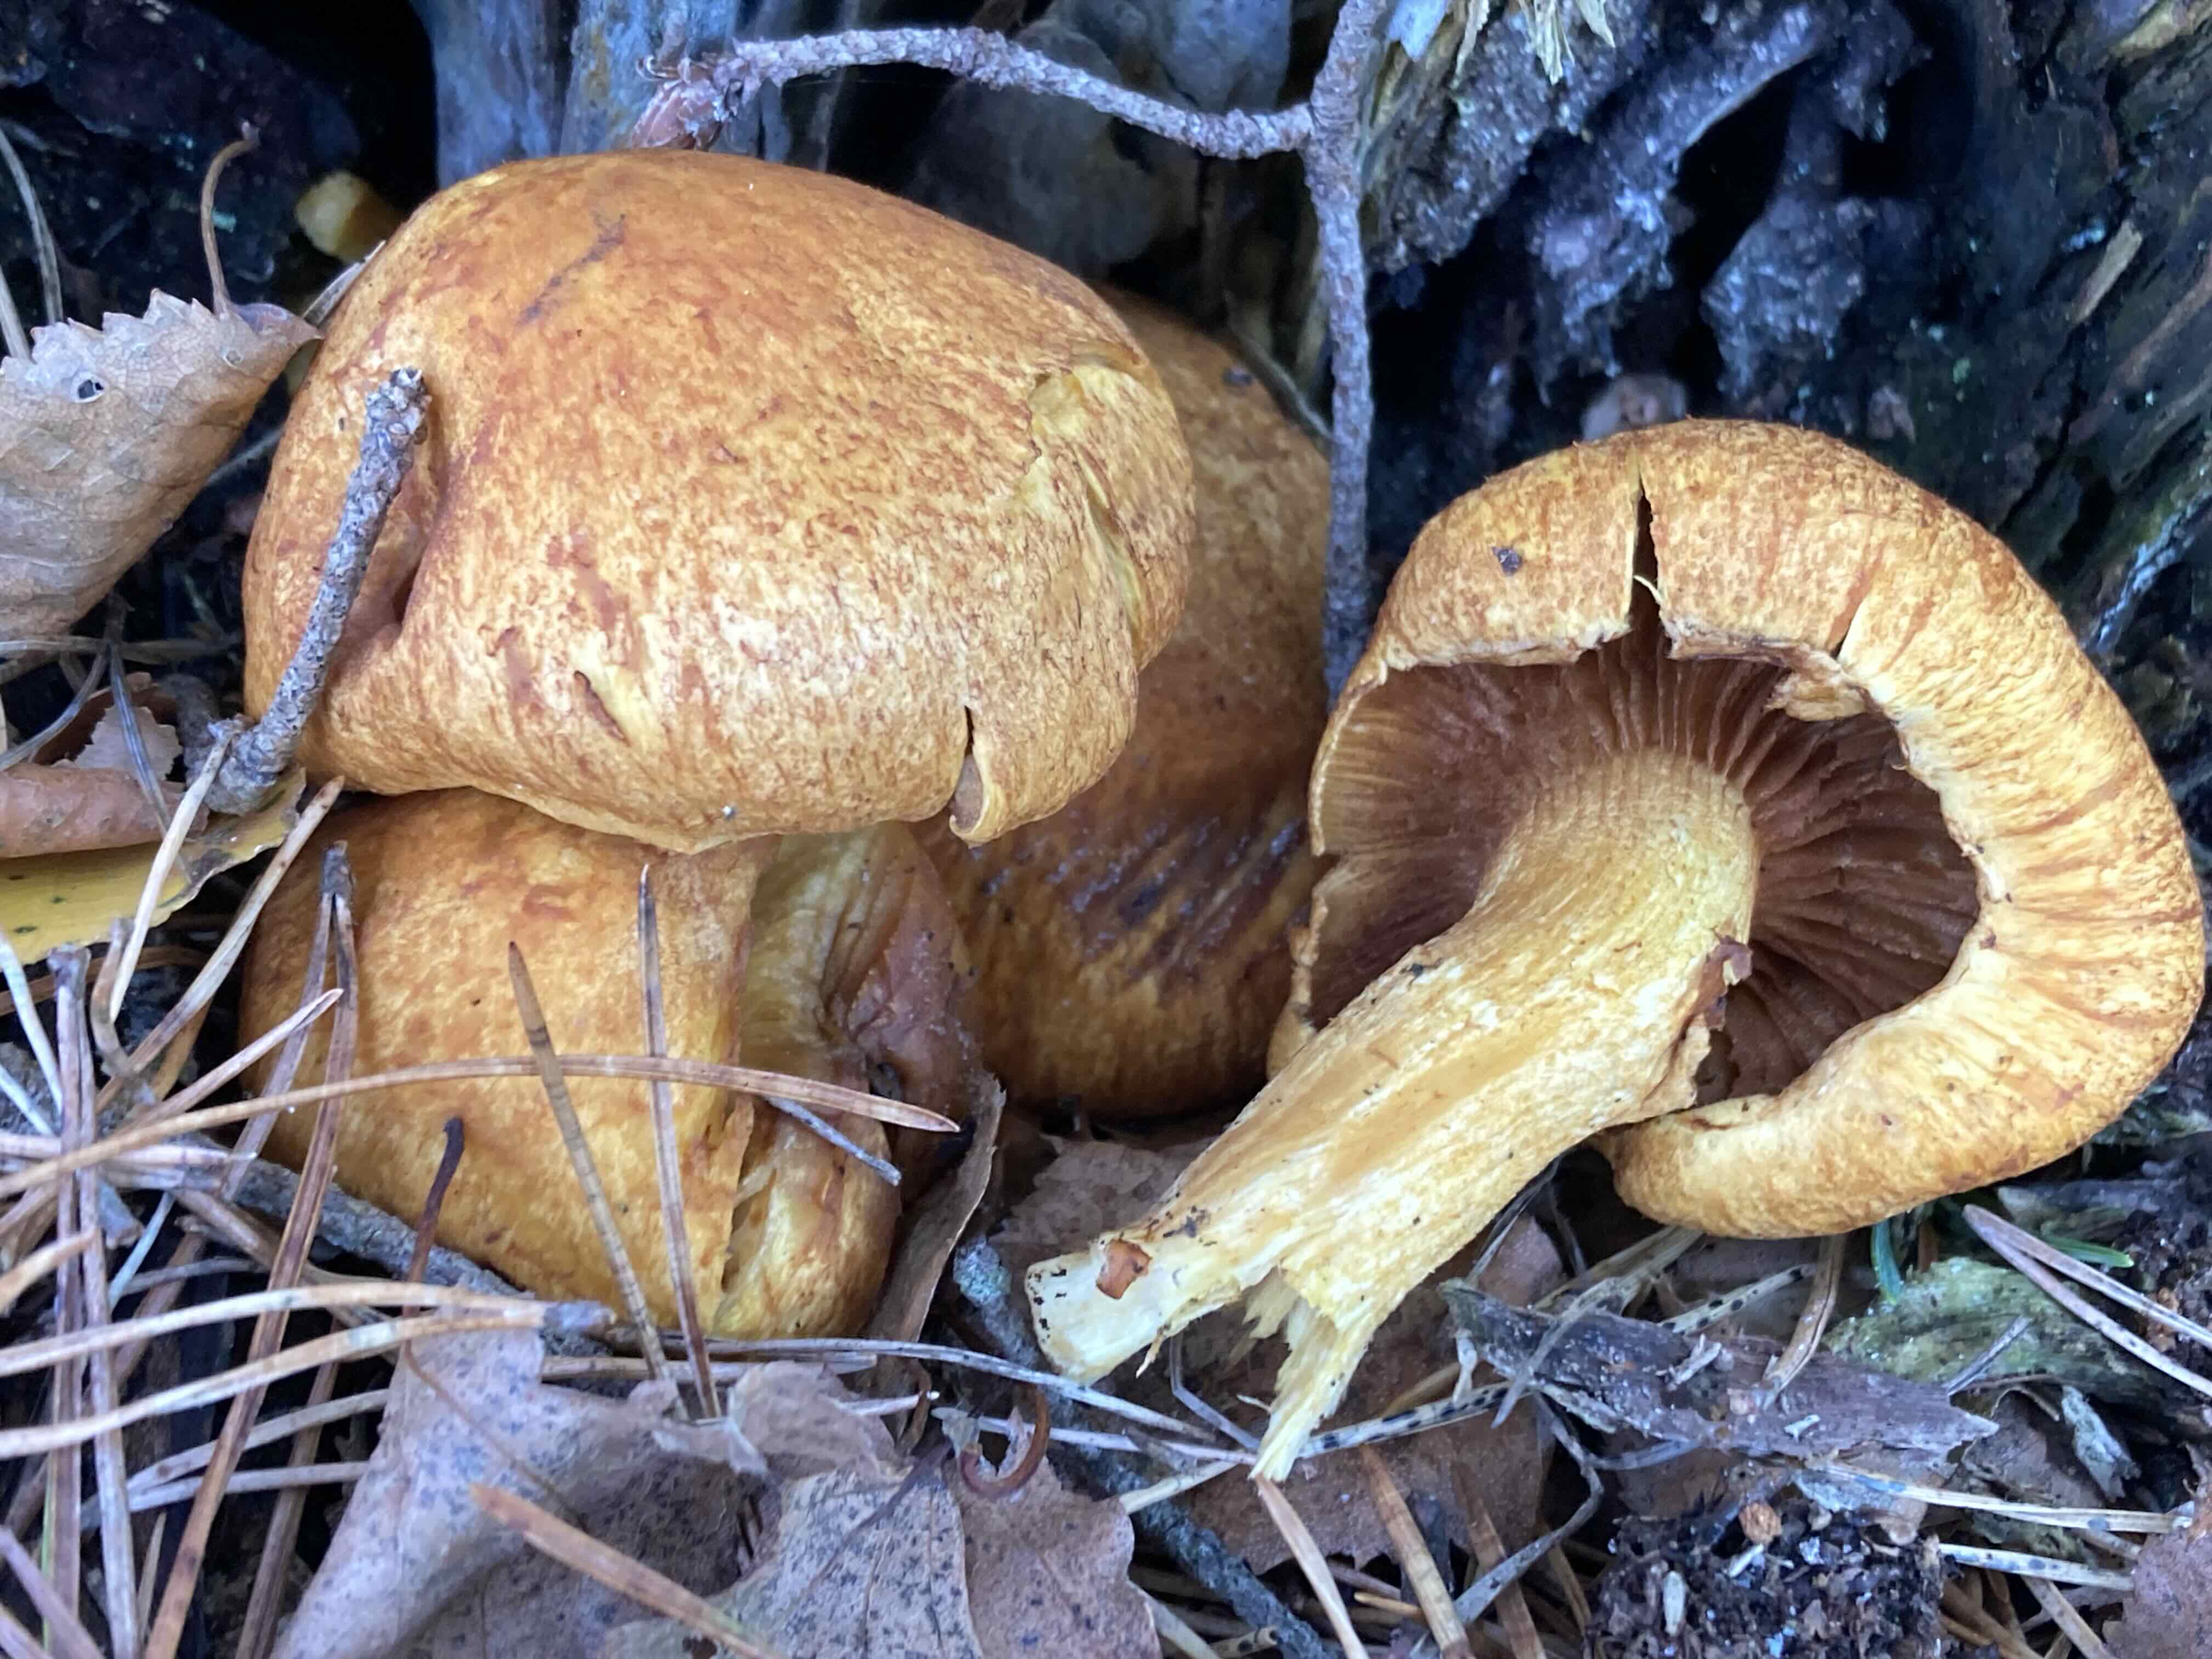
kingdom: Fungi
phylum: Basidiomycota
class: Agaricomycetes
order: Agaricales
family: Hymenogastraceae
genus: Gymnopilus
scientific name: Gymnopilus spectabilis
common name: fibret flammehat
